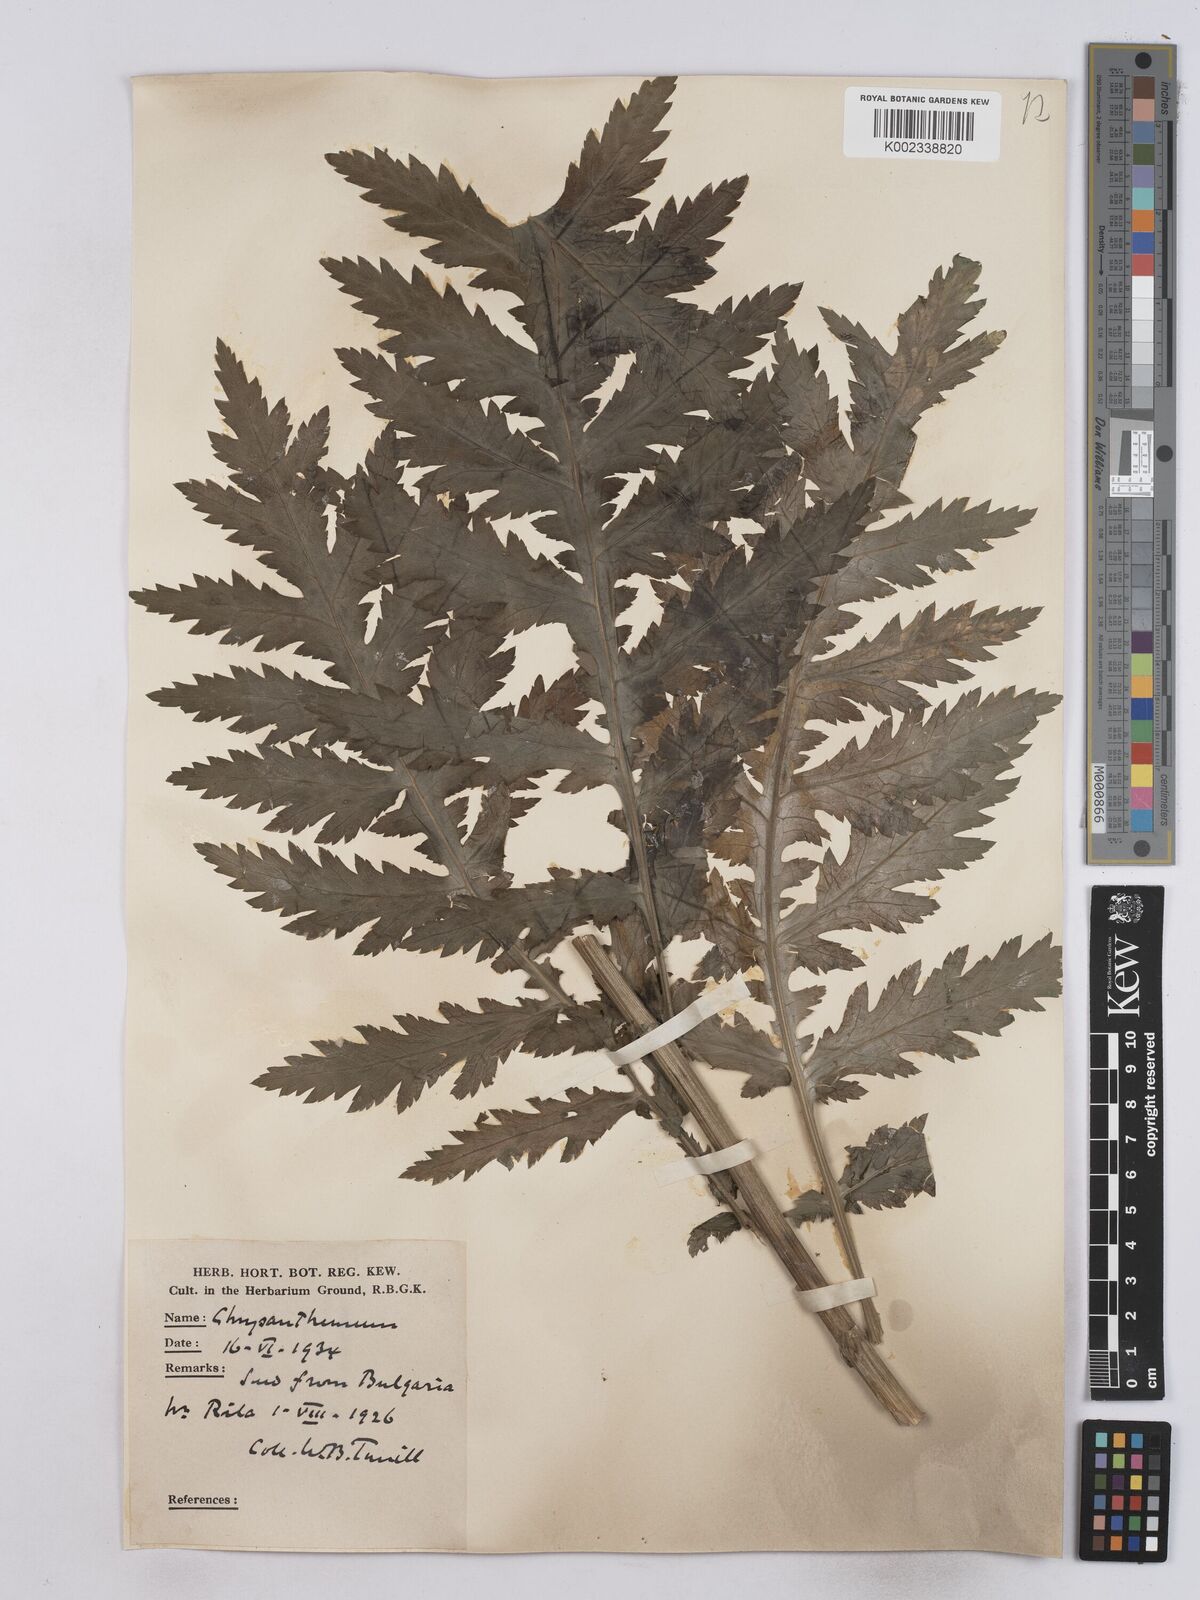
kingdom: Plantae
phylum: Tracheophyta
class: Magnoliopsida
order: Asterales
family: Asteraceae
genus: Tanacetum
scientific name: Tanacetum macrophyllum
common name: Rayed tansy
